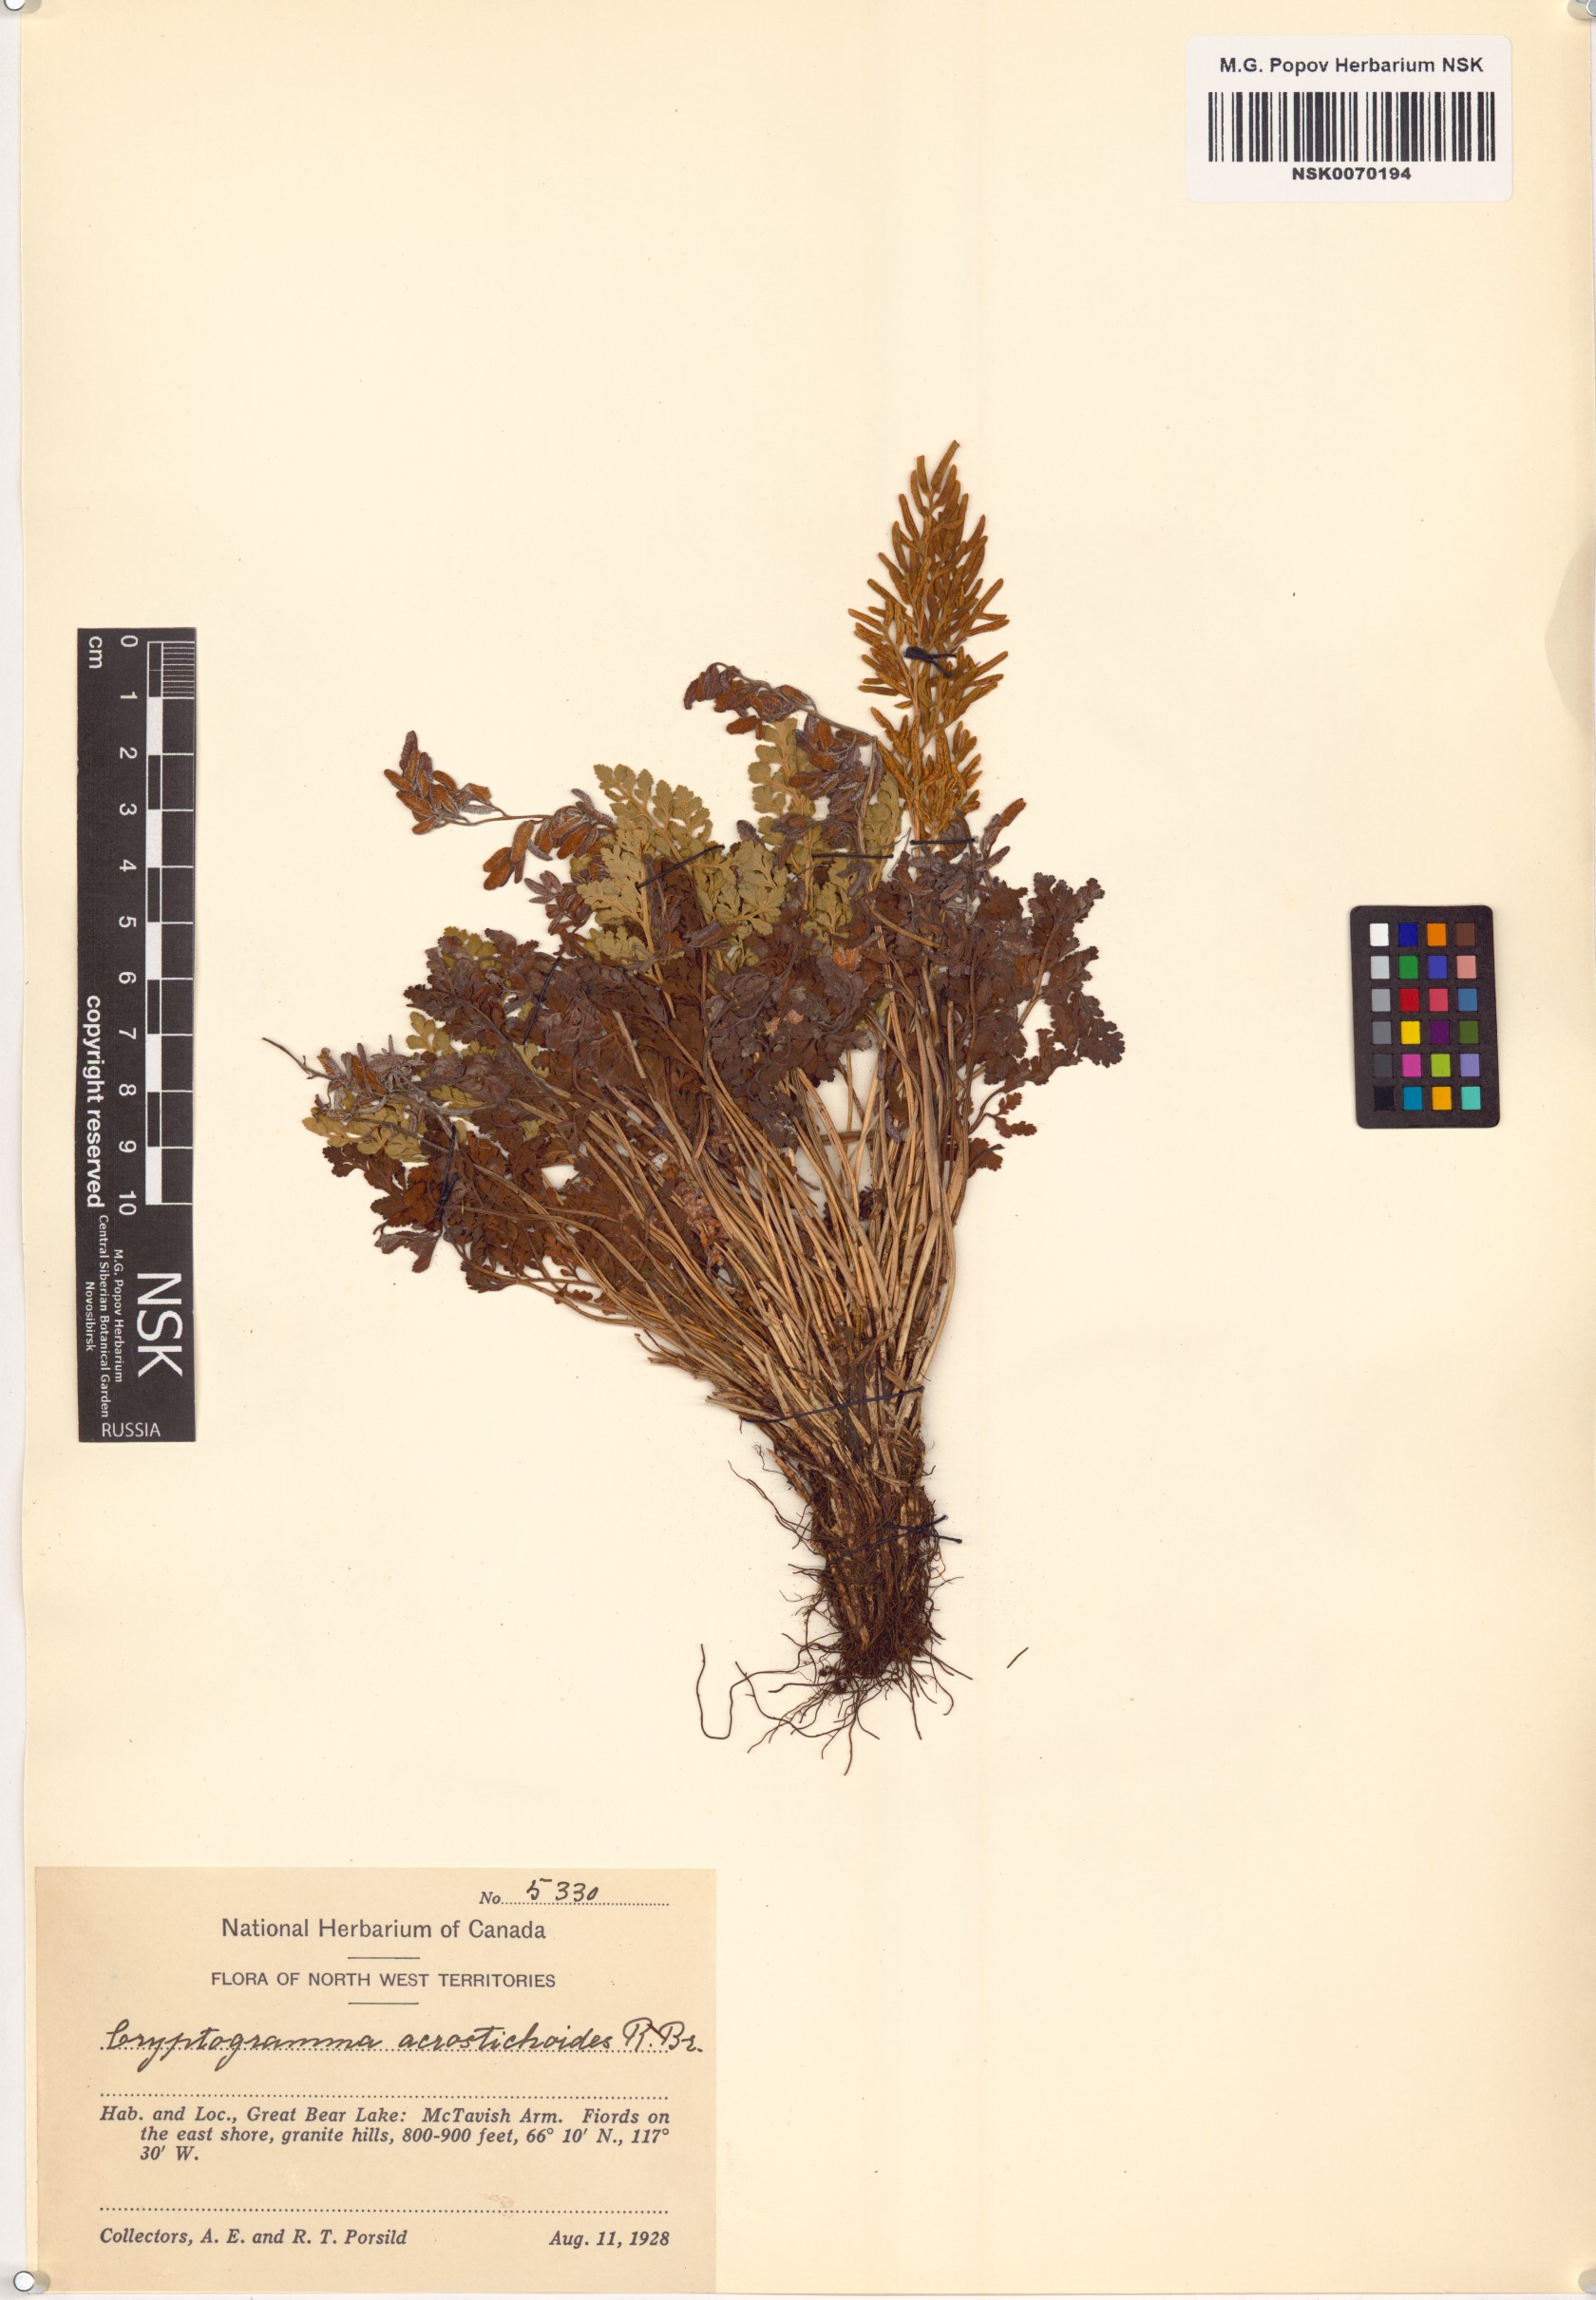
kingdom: Plantae
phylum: Tracheophyta
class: Polypodiopsida
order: Polypodiales
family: Pteridaceae
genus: Cryptogramma
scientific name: Cryptogramma acrostichoides
